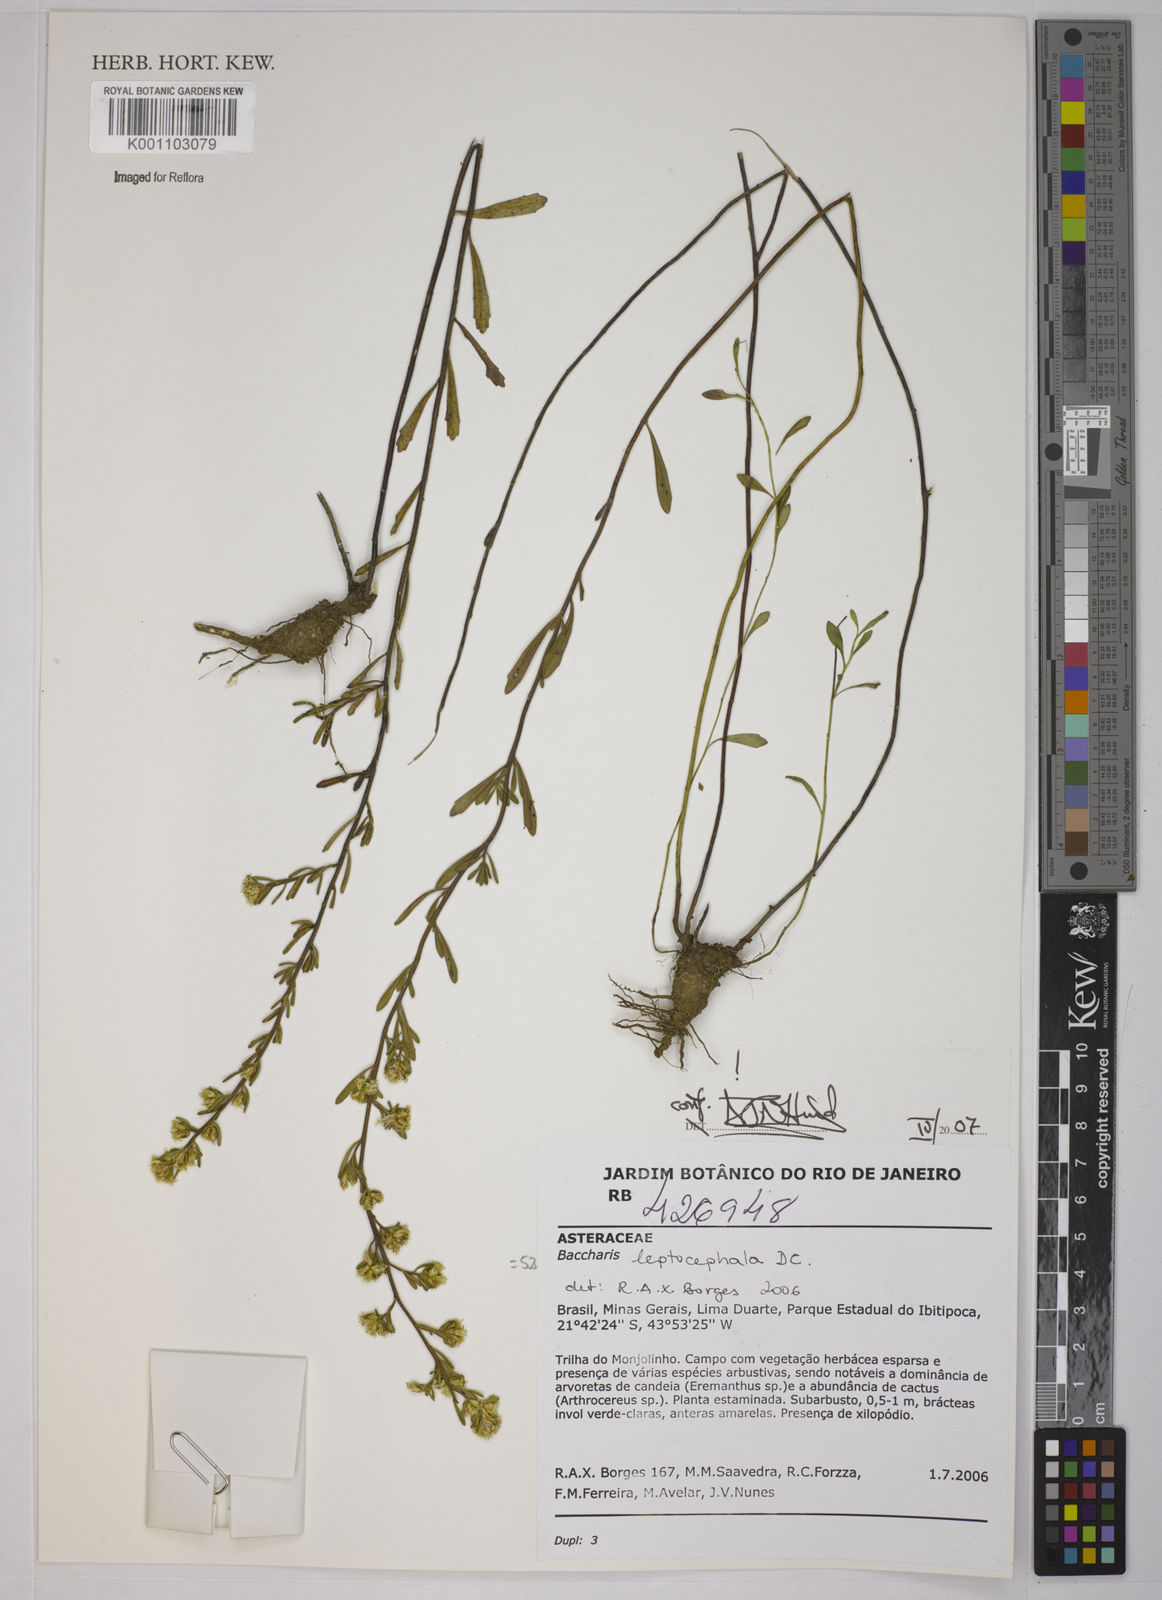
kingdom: Plantae
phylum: Tracheophyta
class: Magnoliopsida
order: Asterales
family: Asteraceae
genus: Baccharis
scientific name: Baccharis leptocephala
